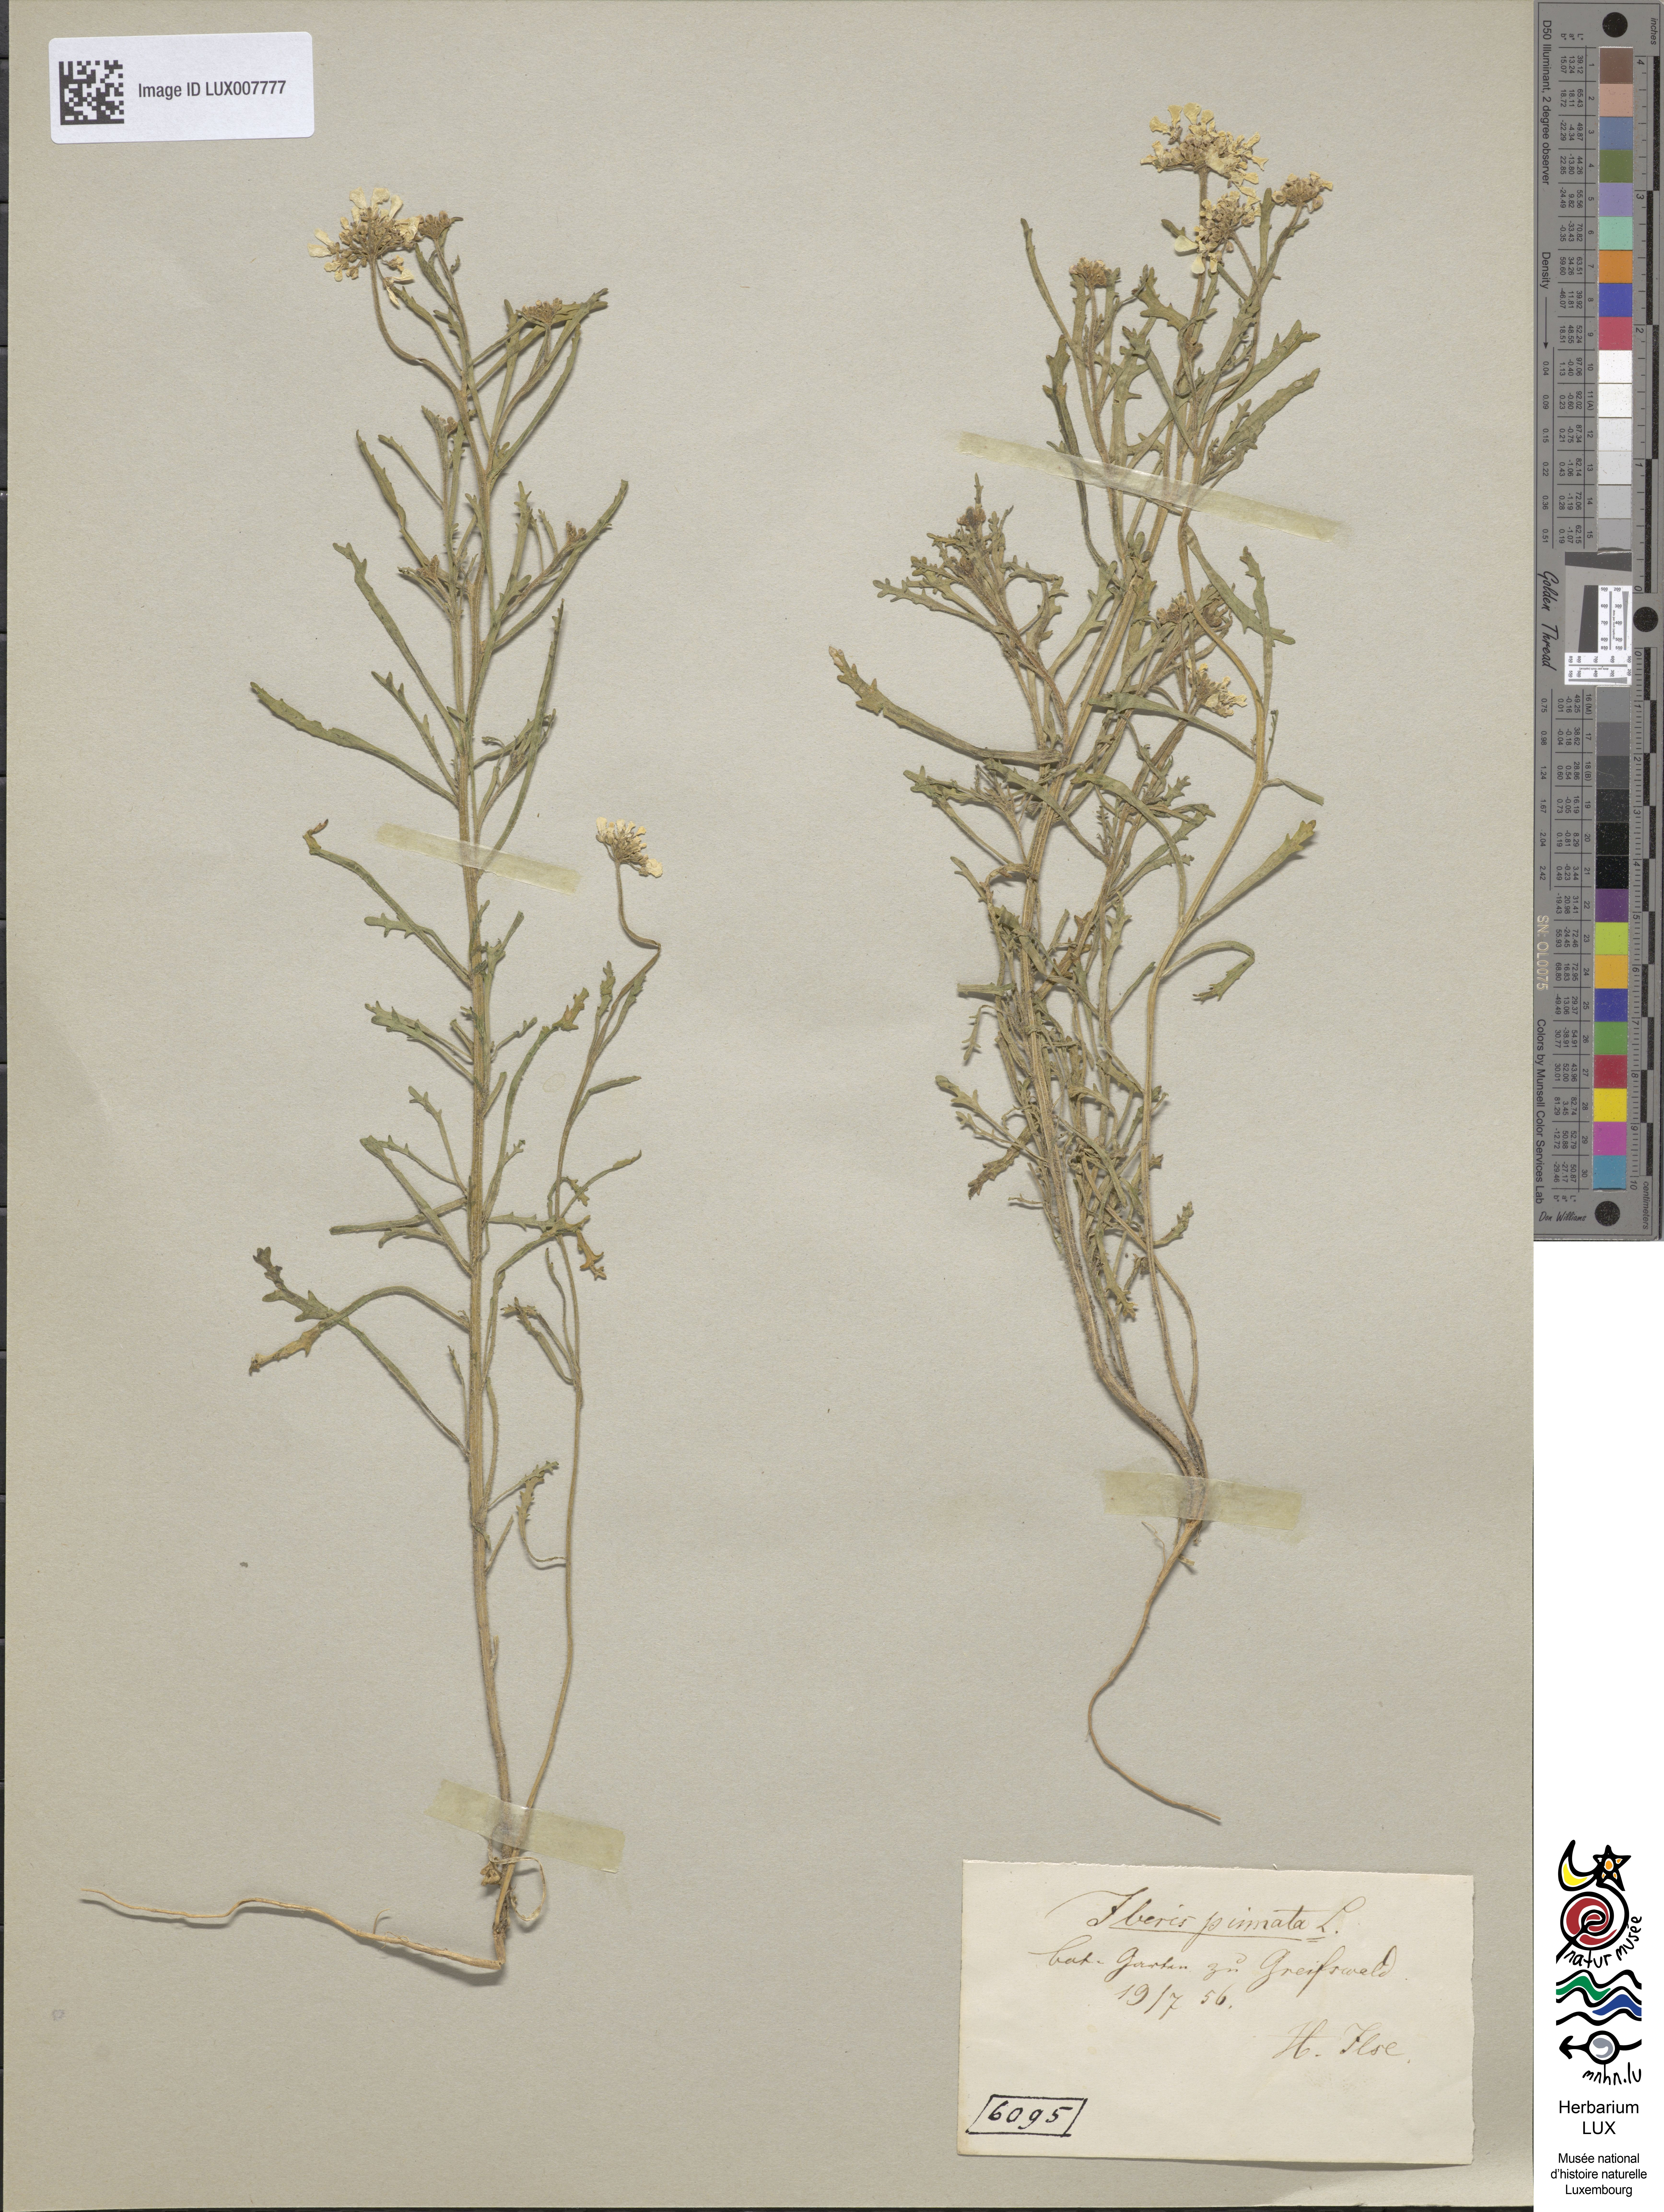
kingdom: Plantae
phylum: Tracheophyta
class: Magnoliopsida
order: Brassicales
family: Brassicaceae
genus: Iberis
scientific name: Iberis pinnata
